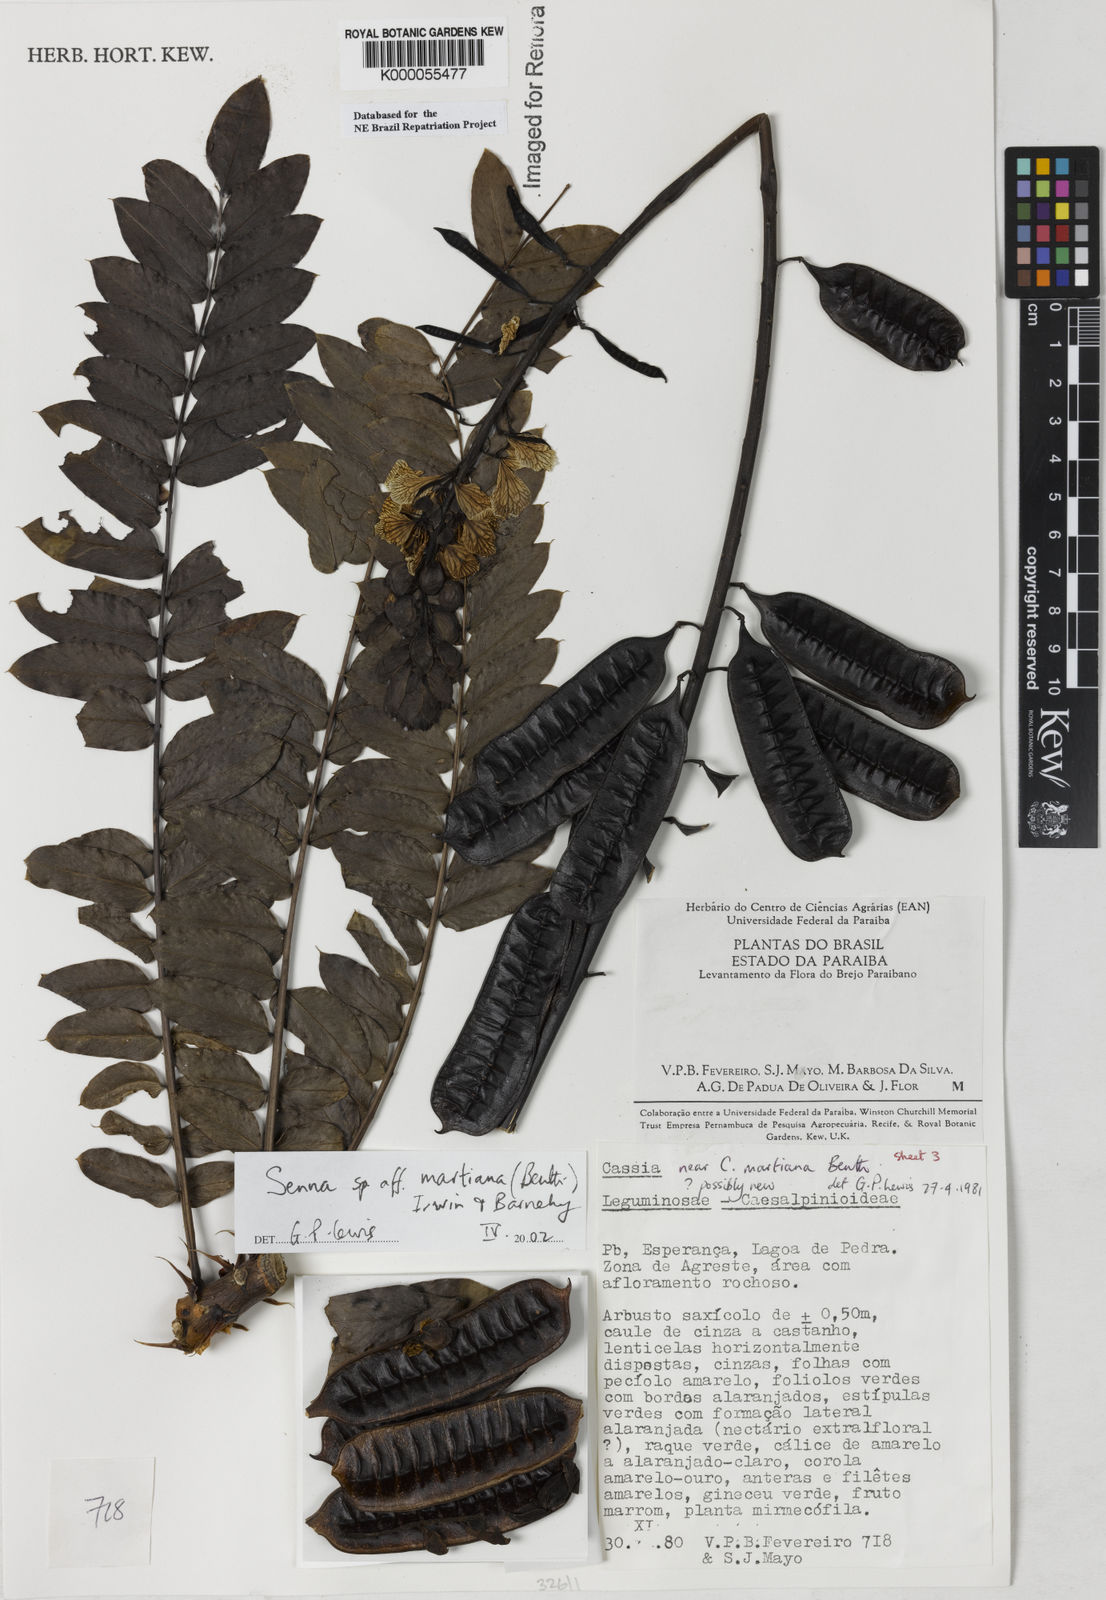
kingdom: Plantae
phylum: Tracheophyta
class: Magnoliopsida
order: Fabales
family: Fabaceae
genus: Senna
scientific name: Senna martiana
